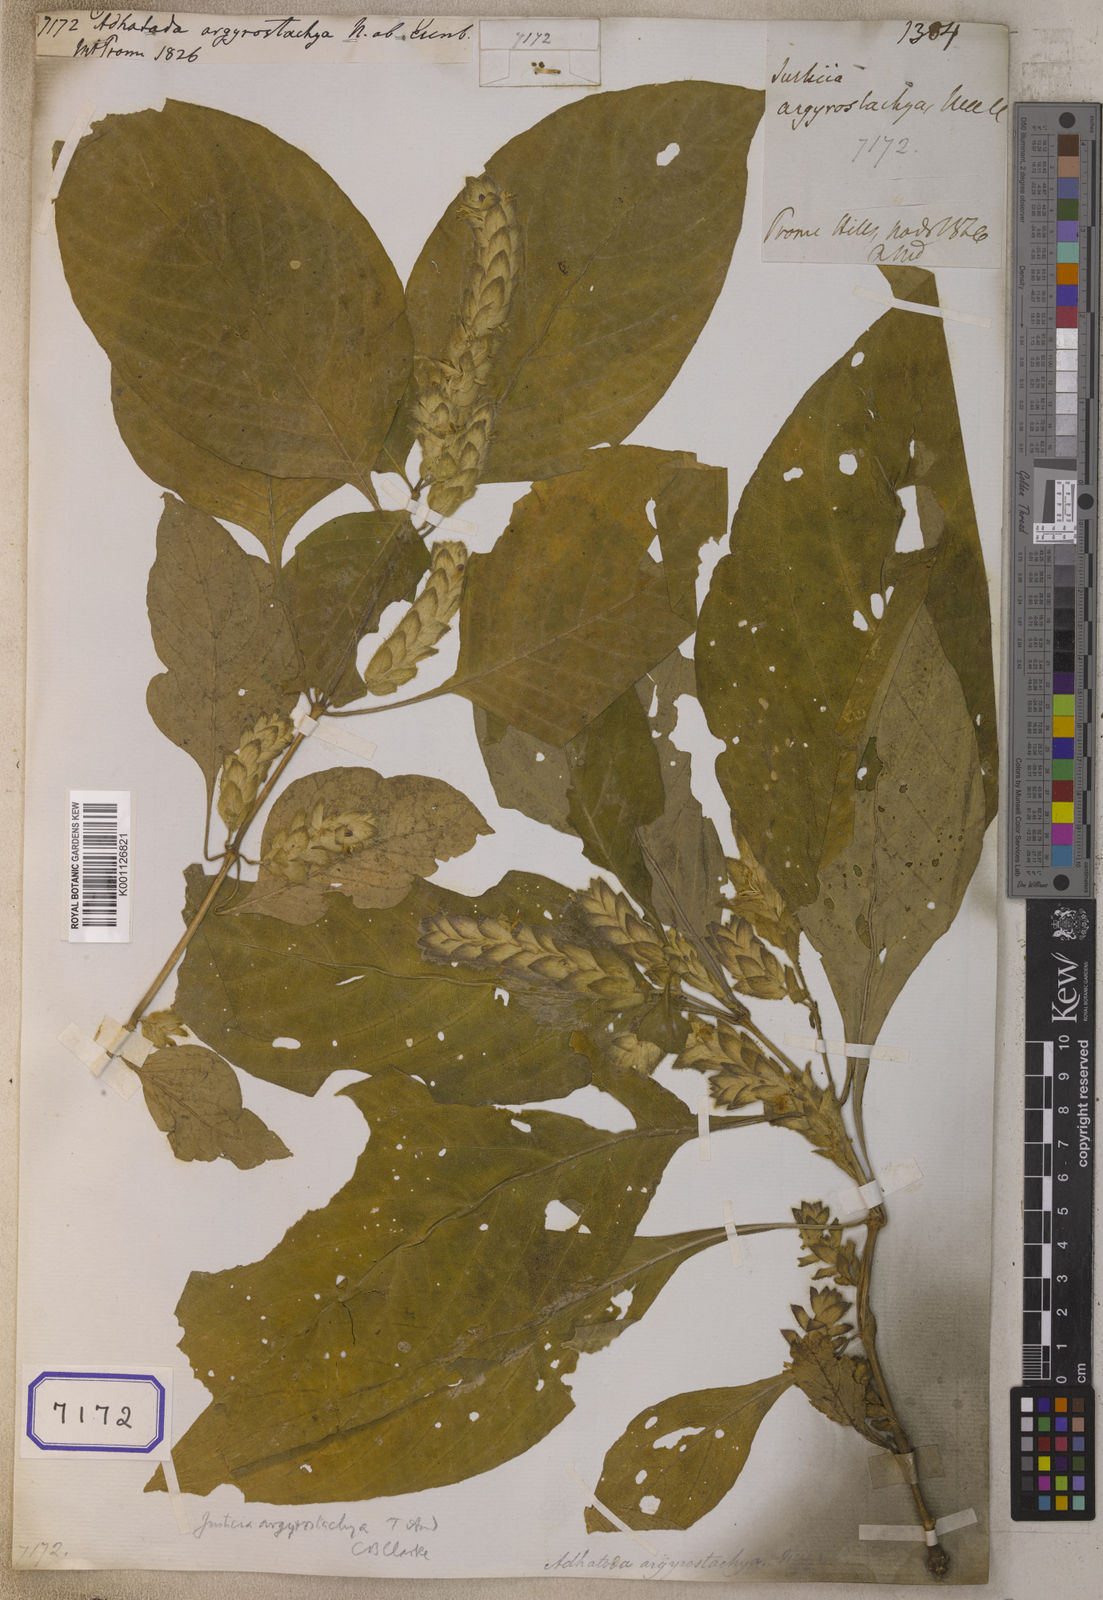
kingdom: Plantae
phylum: Tracheophyta
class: Magnoliopsida
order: Lamiales
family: Acanthaceae
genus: Justicia
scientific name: Justicia argyrostachya
